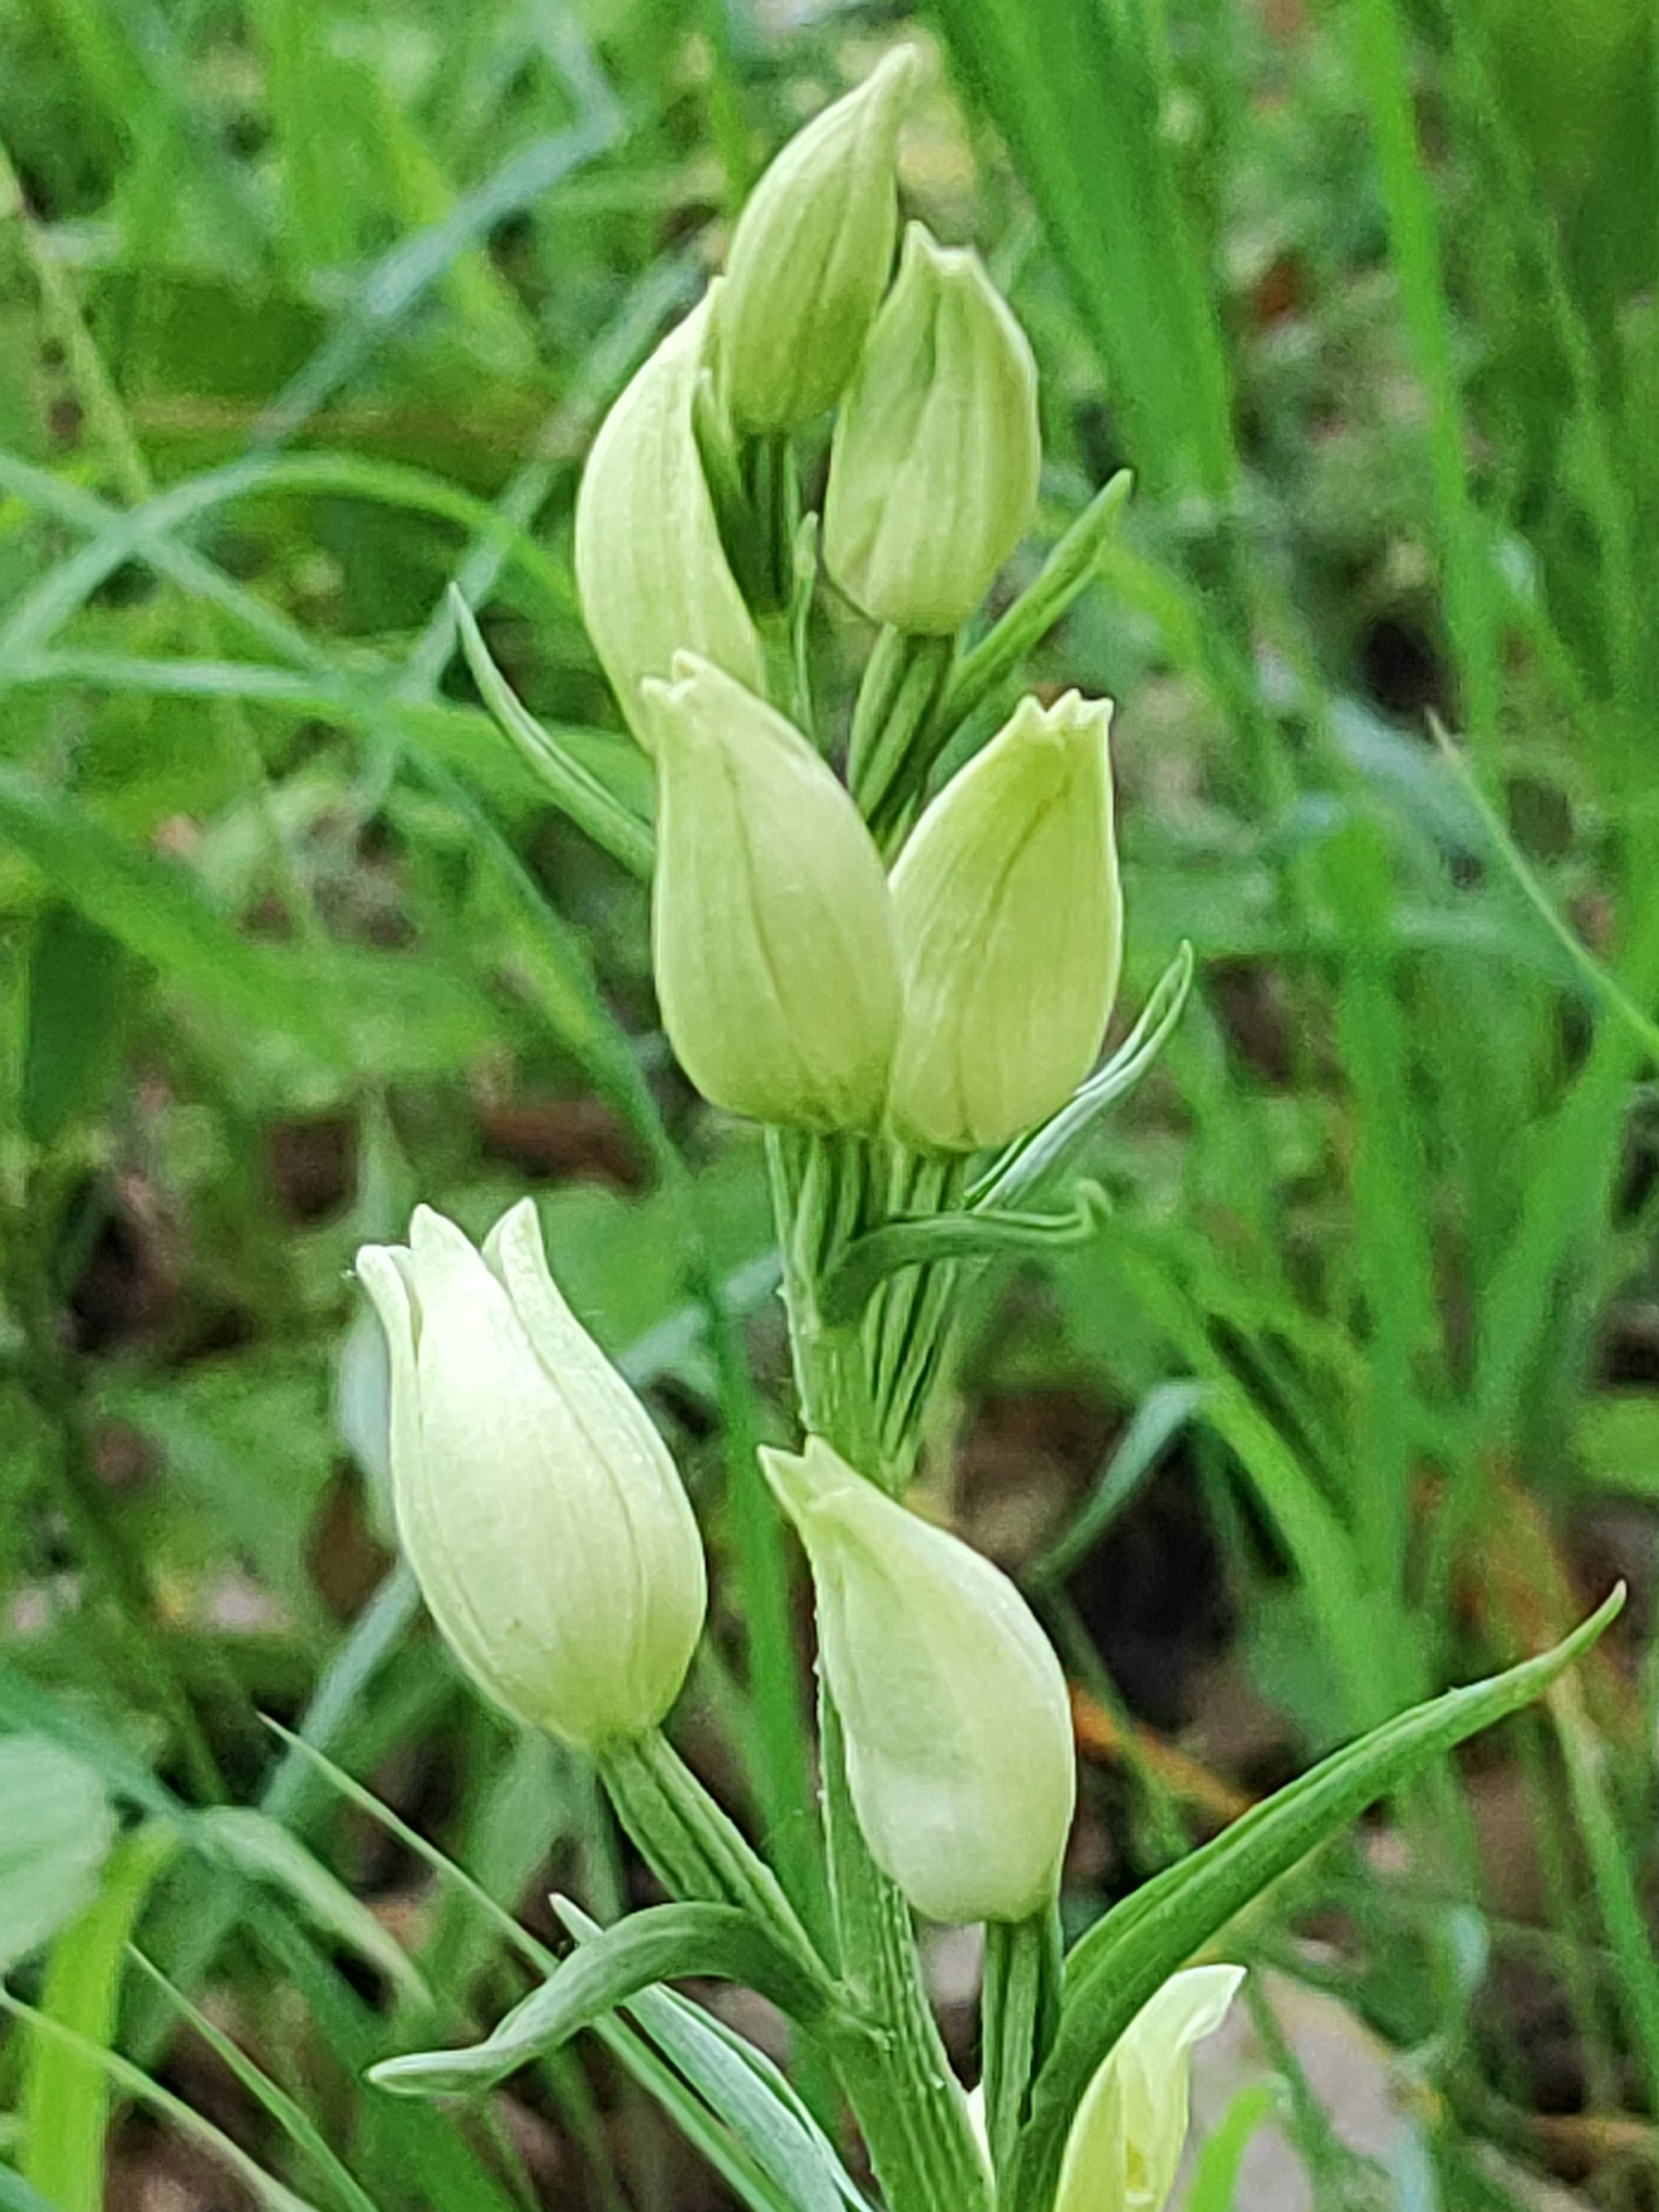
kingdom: Plantae
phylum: Tracheophyta
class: Liliopsida
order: Asparagales
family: Orchidaceae
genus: Cephalanthera
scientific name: Cephalanthera damasonium
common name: Hvidgul skovlilje
